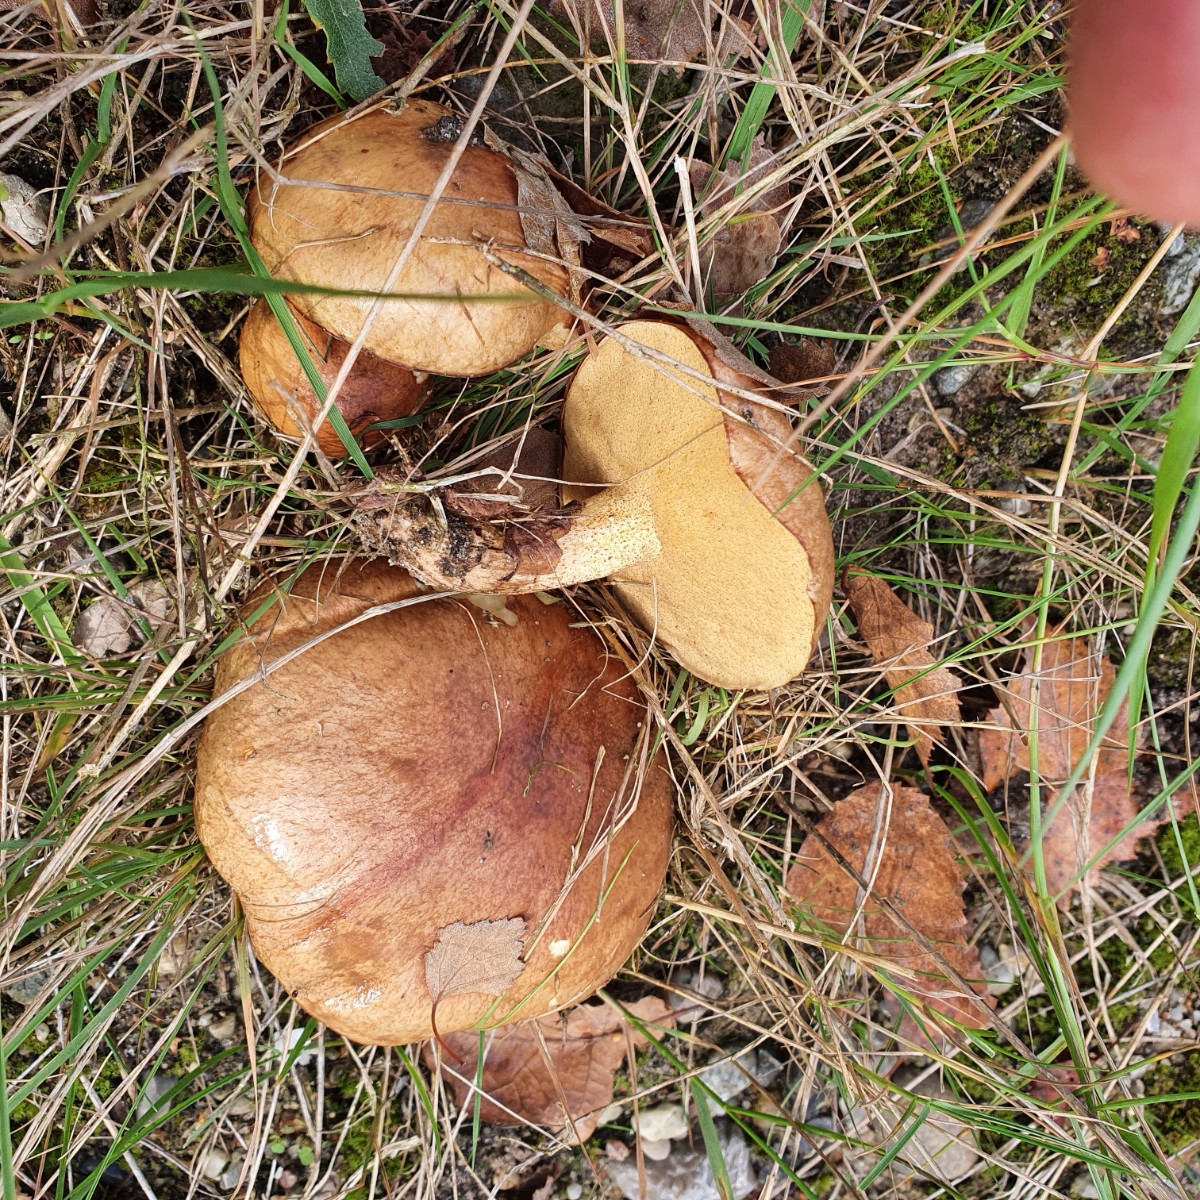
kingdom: Fungi
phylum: Basidiomycota
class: Agaricomycetes
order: Boletales
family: Suillaceae
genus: Suillus
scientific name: Suillus granulatus
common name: kornet slimrørhat
